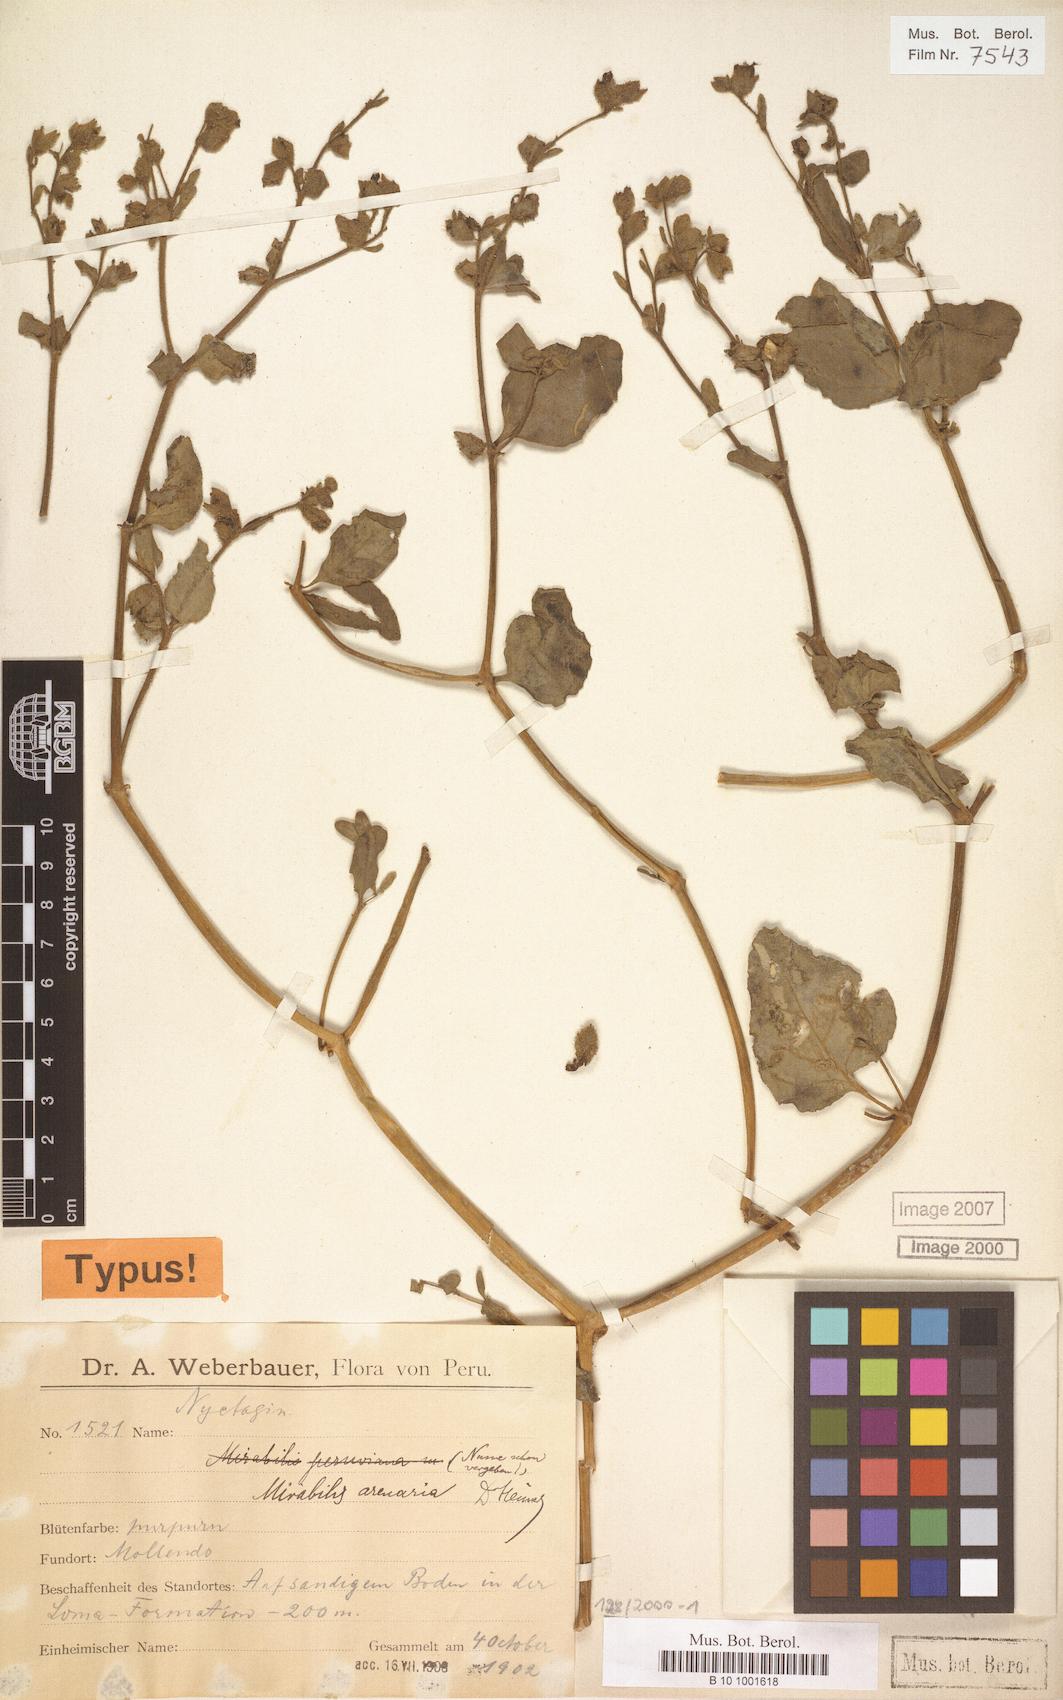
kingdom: Plantae
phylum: Tracheophyta
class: Magnoliopsida
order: Caryophyllales
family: Nyctaginaceae
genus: Mirabilis
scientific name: Mirabilis elegans
